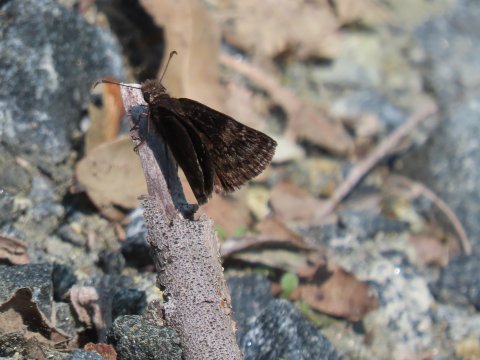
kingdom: Animalia
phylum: Arthropoda
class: Insecta
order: Lepidoptera
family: Hesperiidae
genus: Gesta
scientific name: Gesta
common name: Wild Indigo Duskywing
